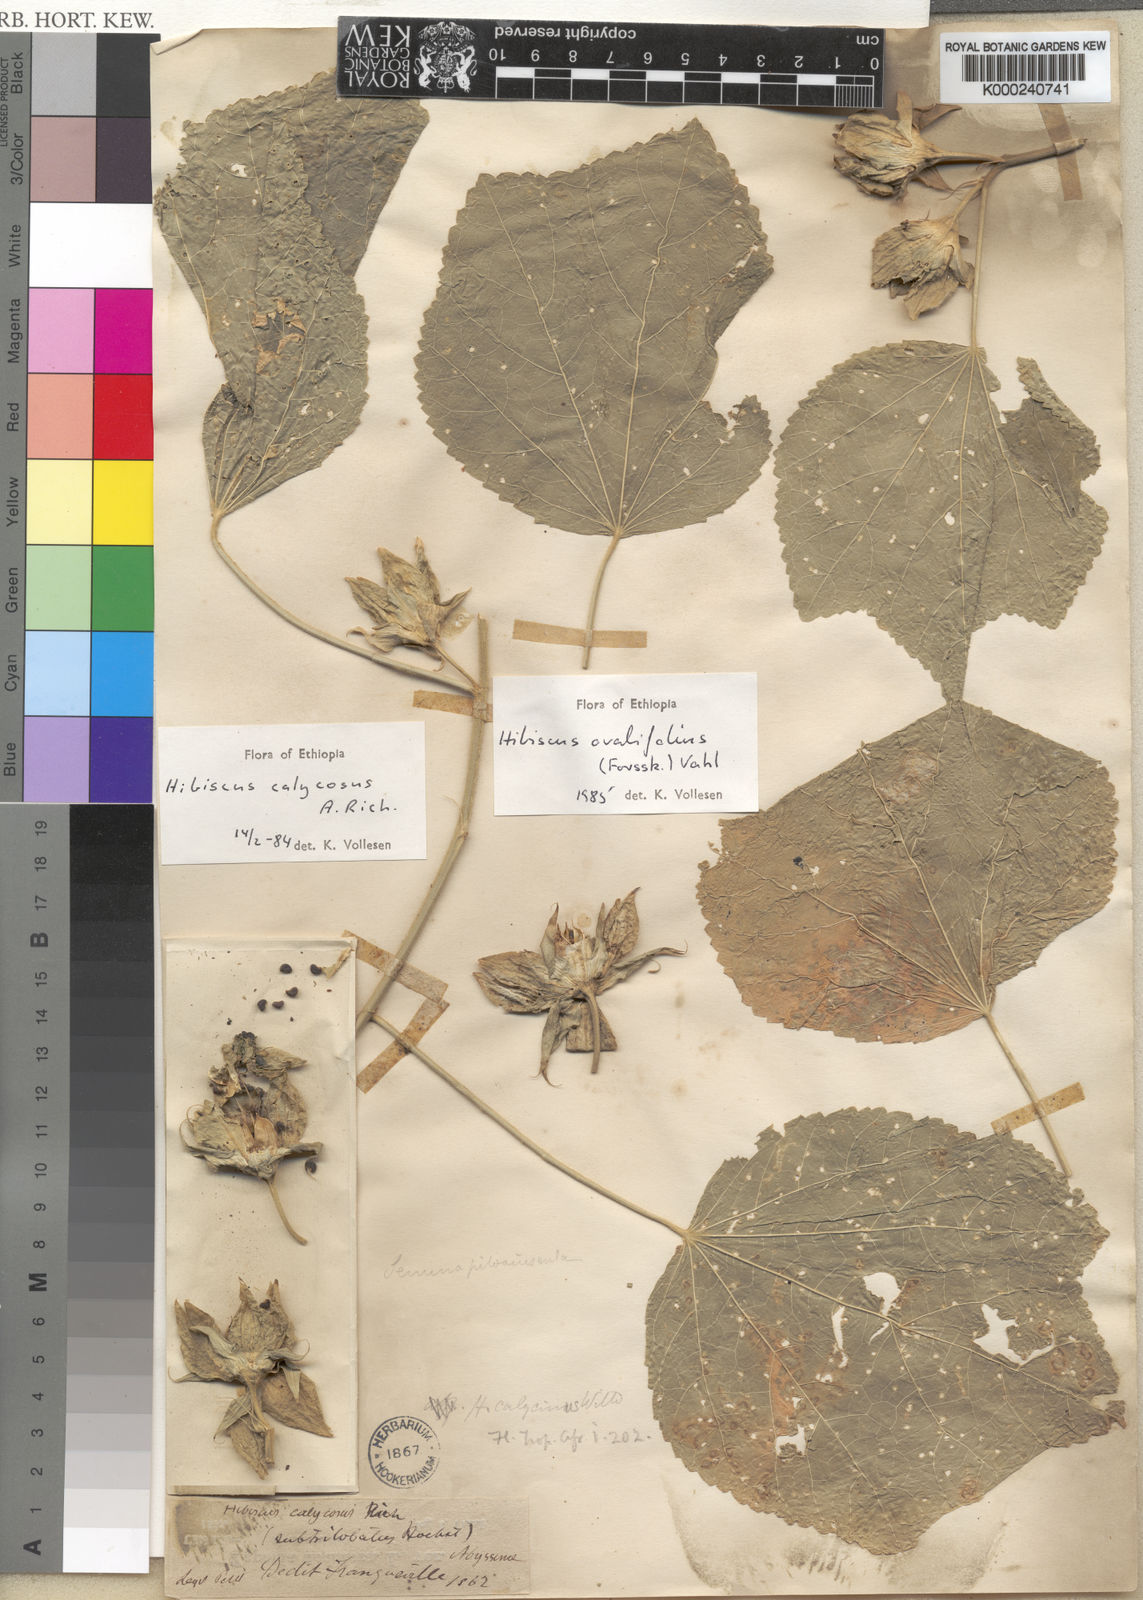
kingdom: Plantae
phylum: Tracheophyta
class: Magnoliopsida
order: Malvales
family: Malvaceae
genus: Hibiscus
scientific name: Hibiscus ovalifolius
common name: Rosemallow
